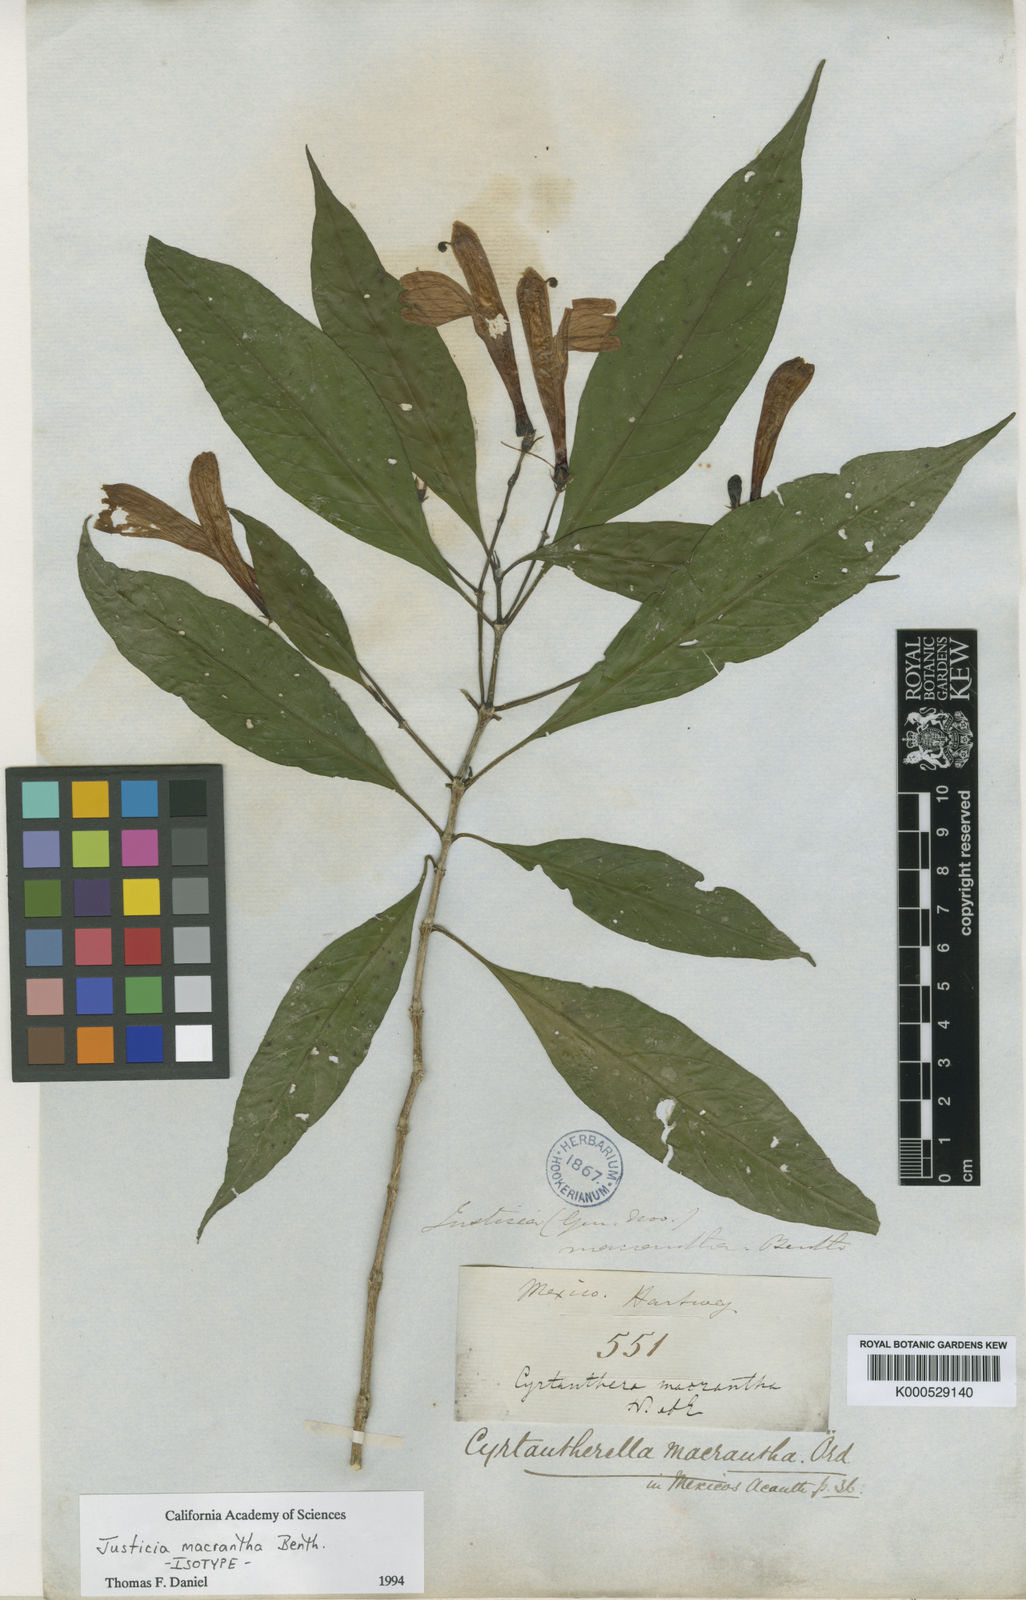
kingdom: Plantae
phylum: Tracheophyta
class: Magnoliopsida
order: Lamiales
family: Acanthaceae
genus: Justicia
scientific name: Justicia macrantha
